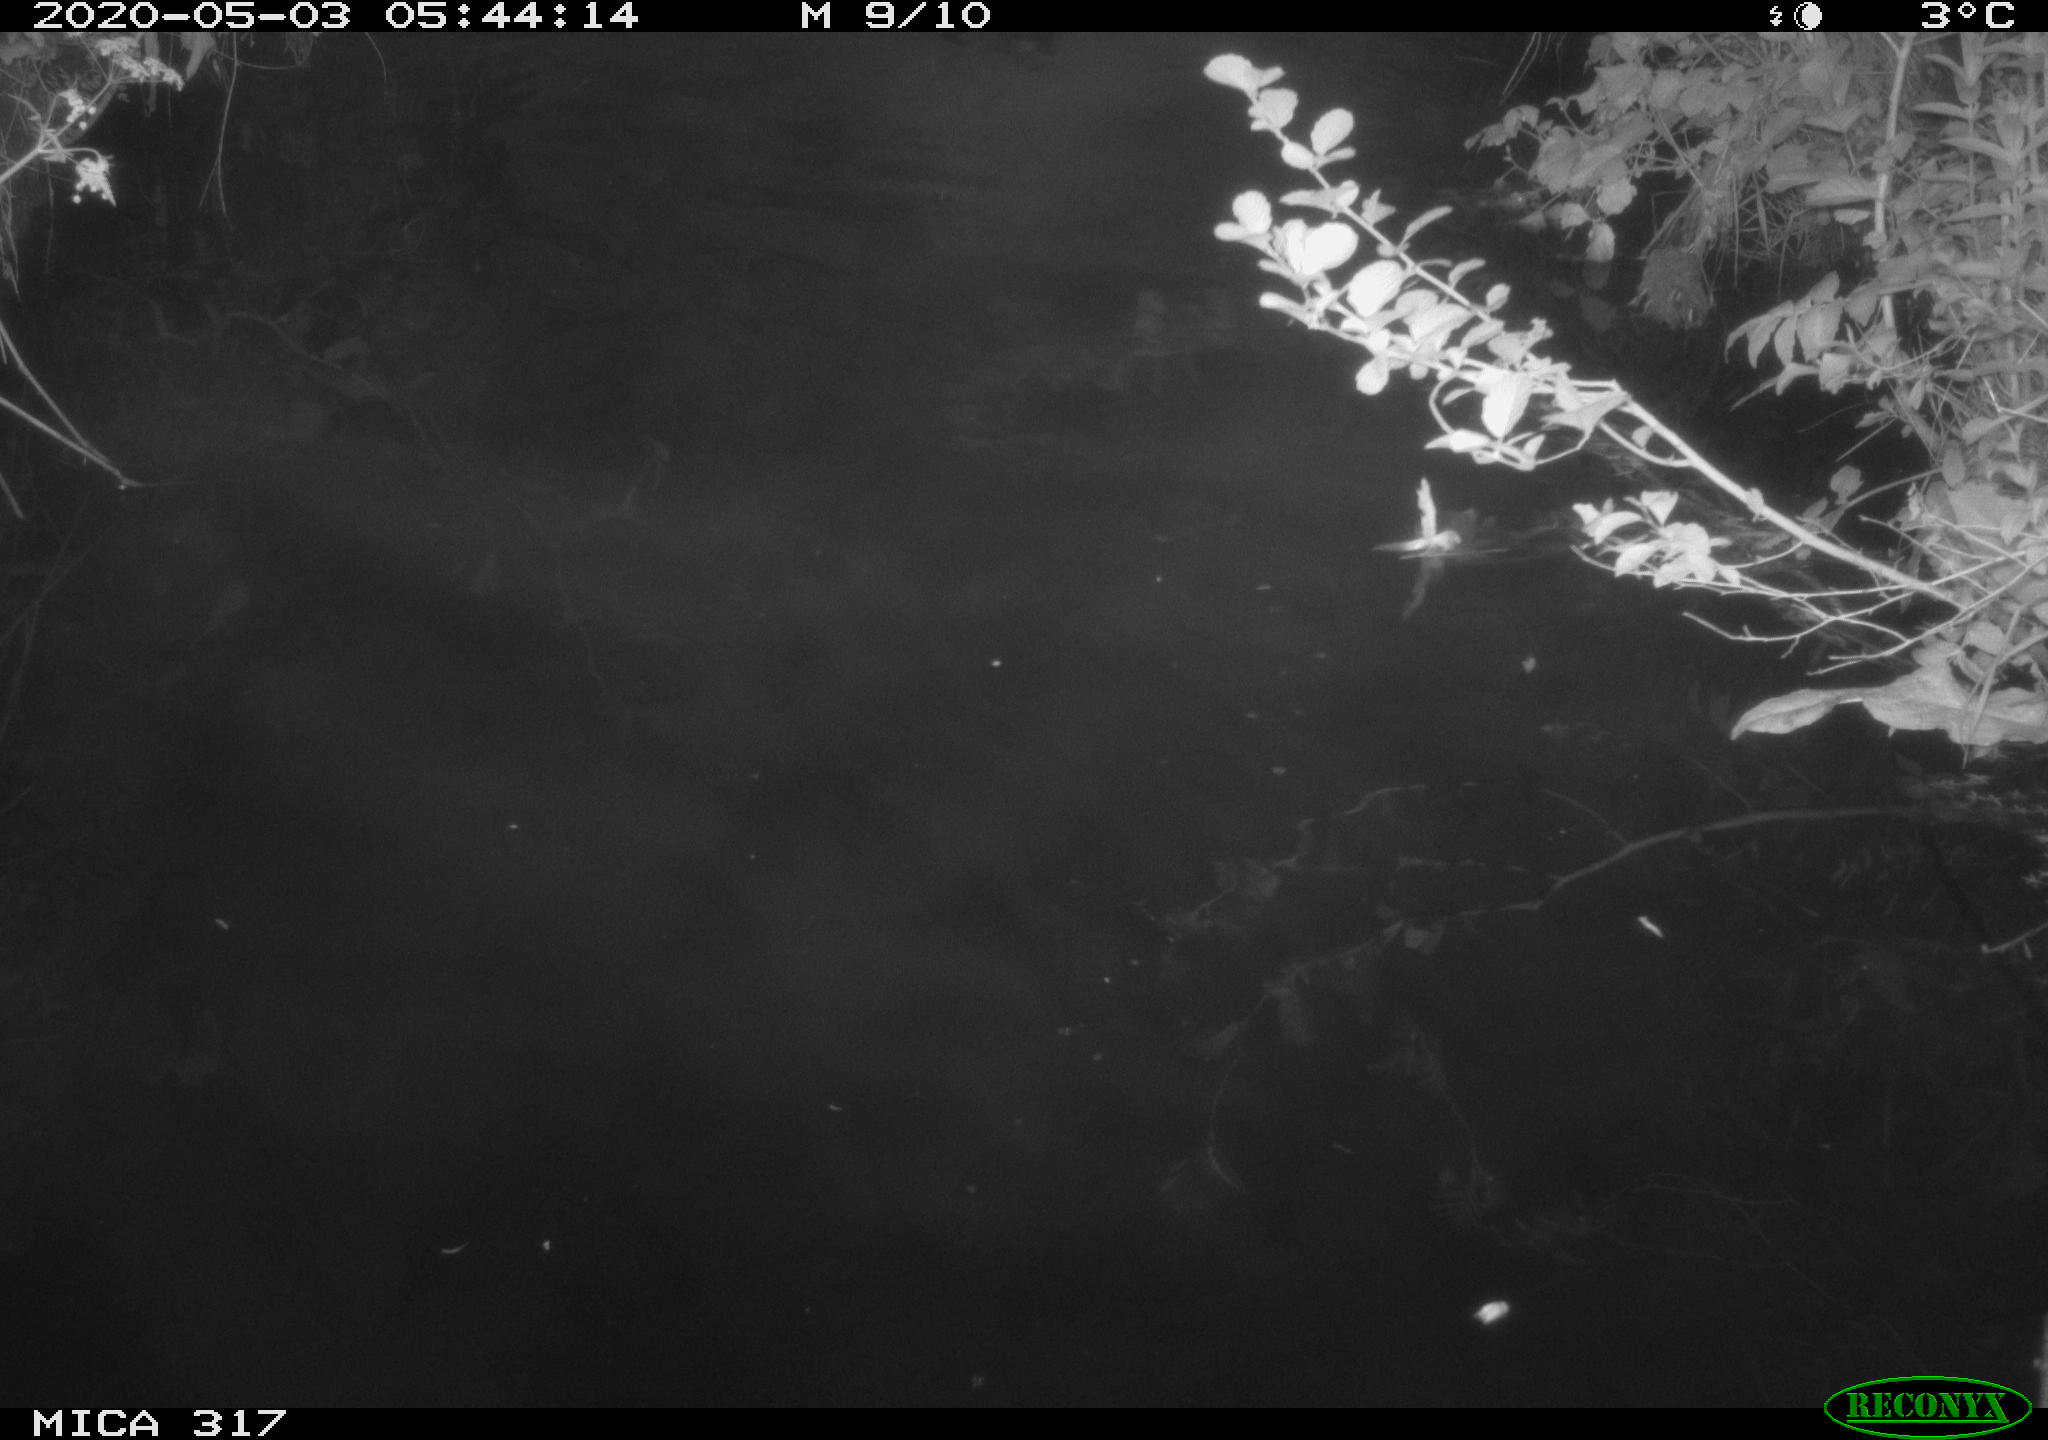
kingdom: Animalia
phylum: Chordata
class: Aves
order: Anseriformes
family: Anatidae
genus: Anas
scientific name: Anas platyrhynchos
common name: Mallard
